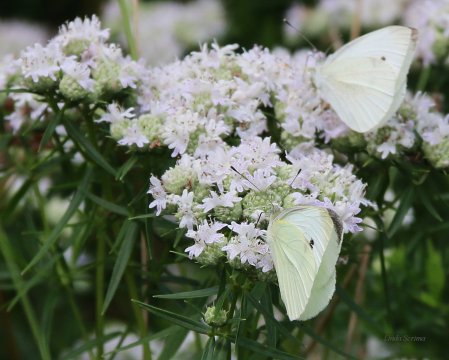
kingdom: Animalia
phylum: Arthropoda
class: Insecta
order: Lepidoptera
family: Pieridae
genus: Pieris
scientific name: Pieris rapae
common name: Cabbage White
